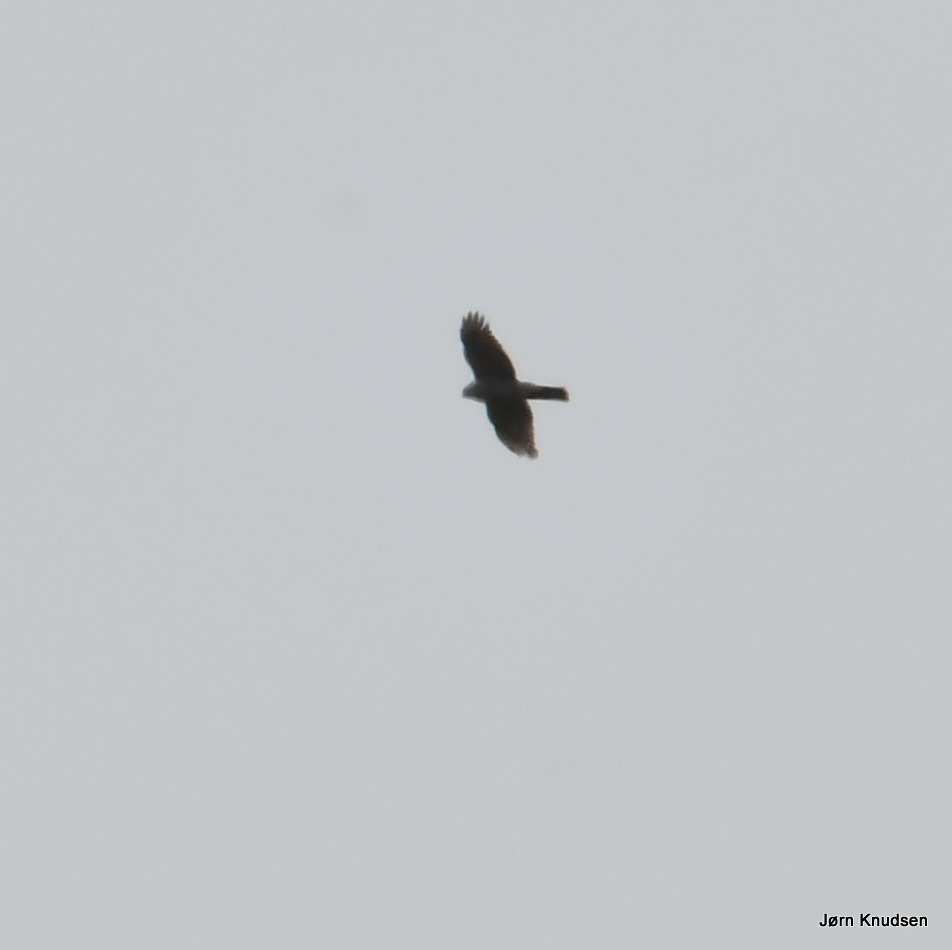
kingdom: Animalia
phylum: Chordata
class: Aves
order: Accipitriformes
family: Accipitridae
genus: Accipiter
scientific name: Accipiter nisus
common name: Spurvehøg
